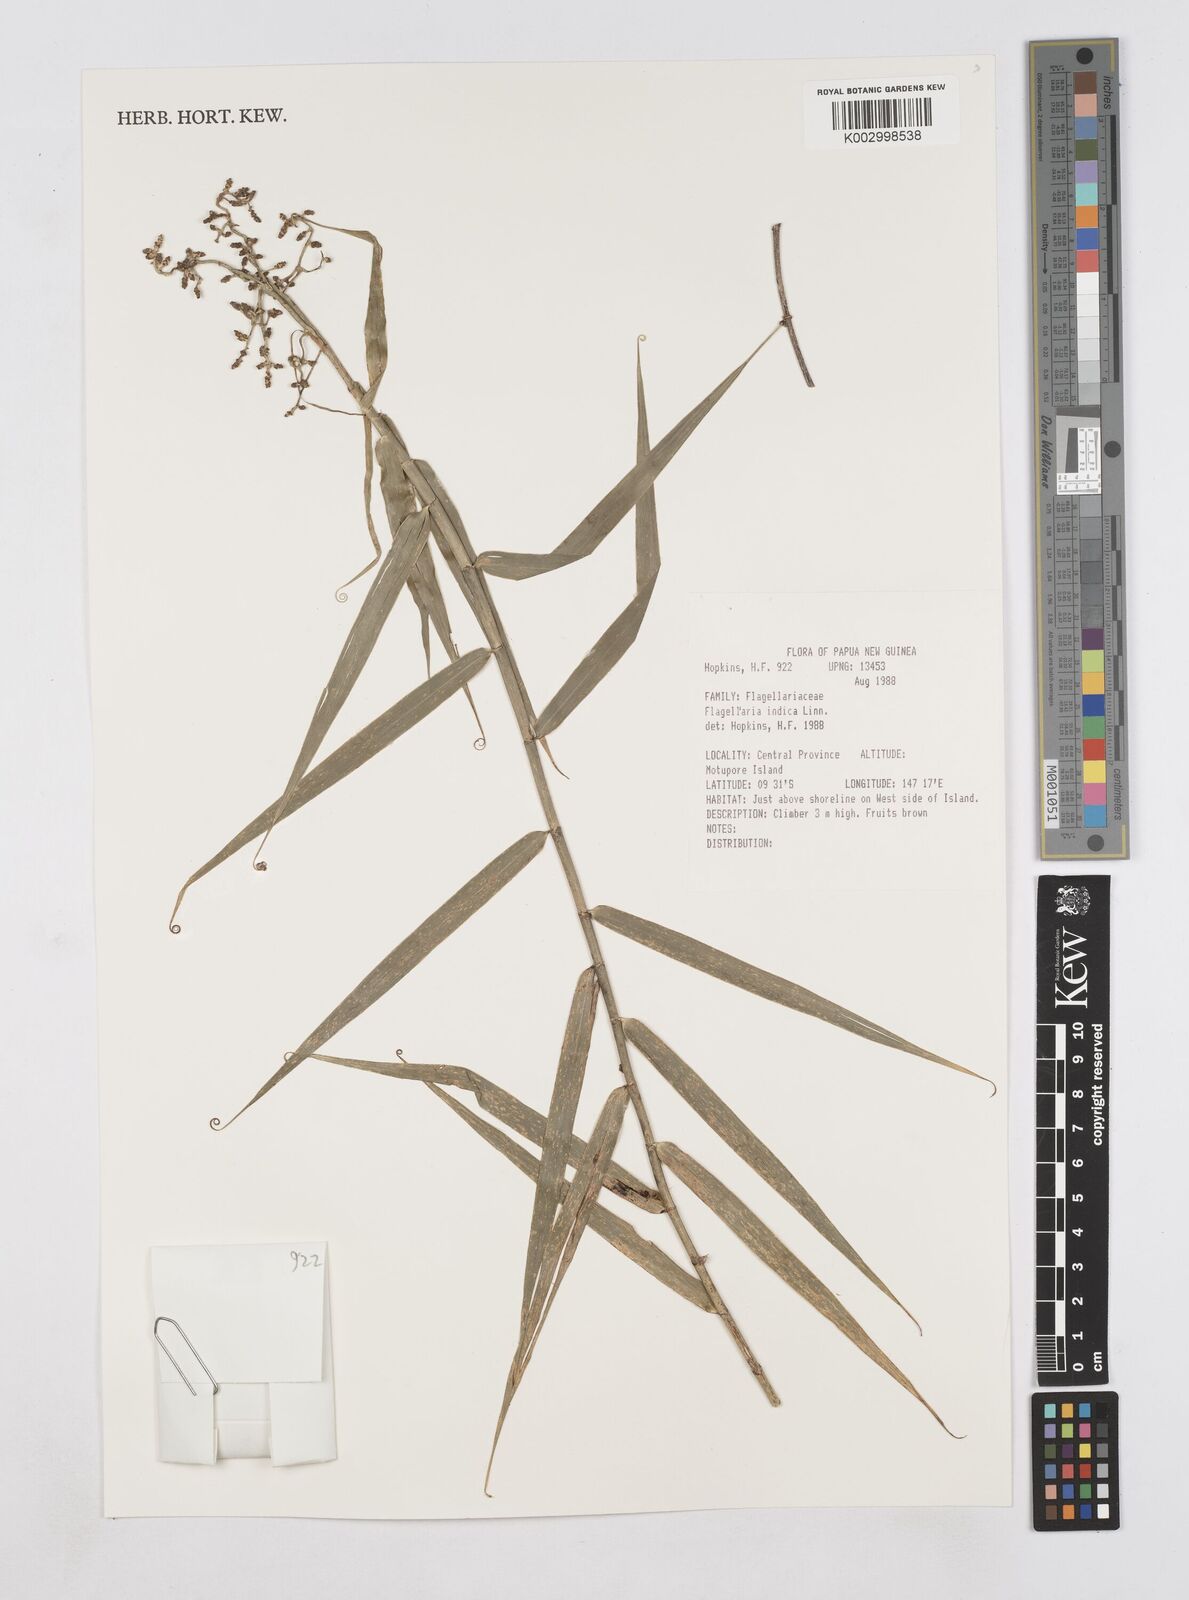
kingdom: Plantae
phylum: Tracheophyta
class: Liliopsida
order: Poales
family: Flagellariaceae
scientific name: Flagellariaceae
